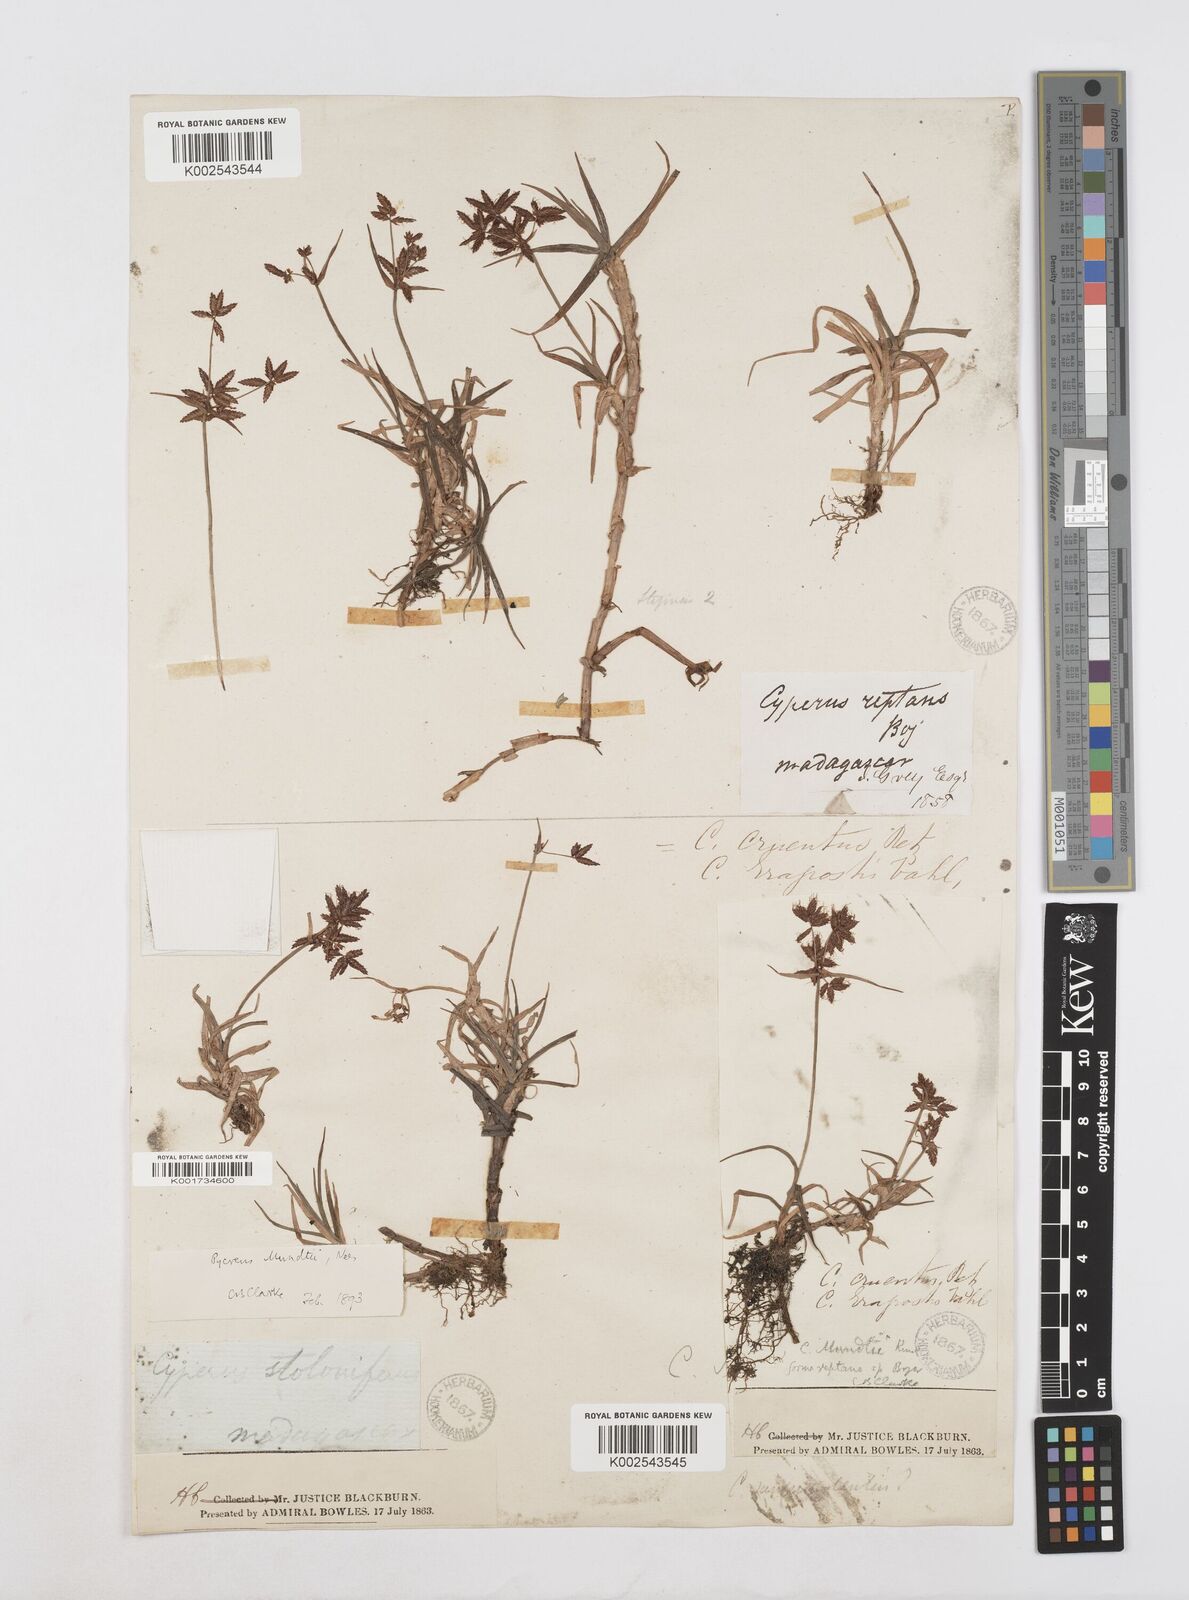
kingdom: Plantae
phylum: Tracheophyta
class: Liliopsida
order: Poales
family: Cyperaceae
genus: Cyperus
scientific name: Cyperus mundii
